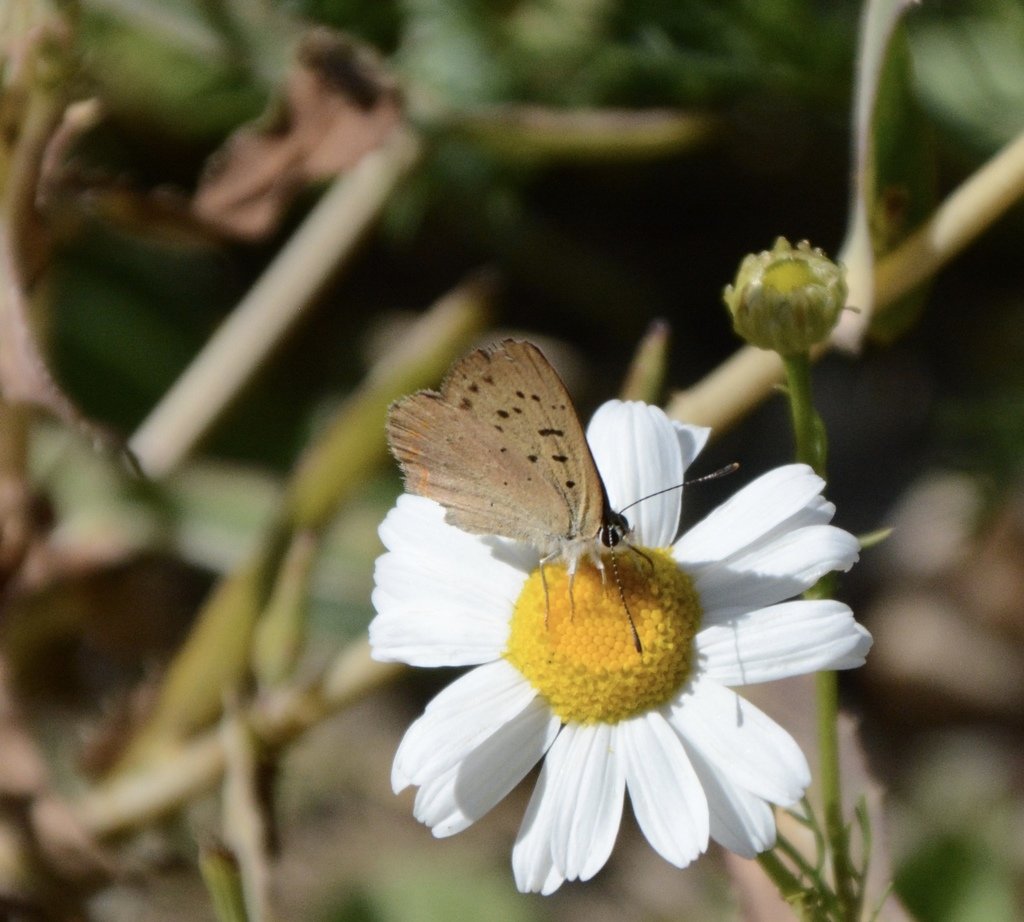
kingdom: Animalia
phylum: Arthropoda
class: Insecta
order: Lepidoptera
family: Sesiidae
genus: Sesia
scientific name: Sesia Lycaena helloides
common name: Purplish Copper
